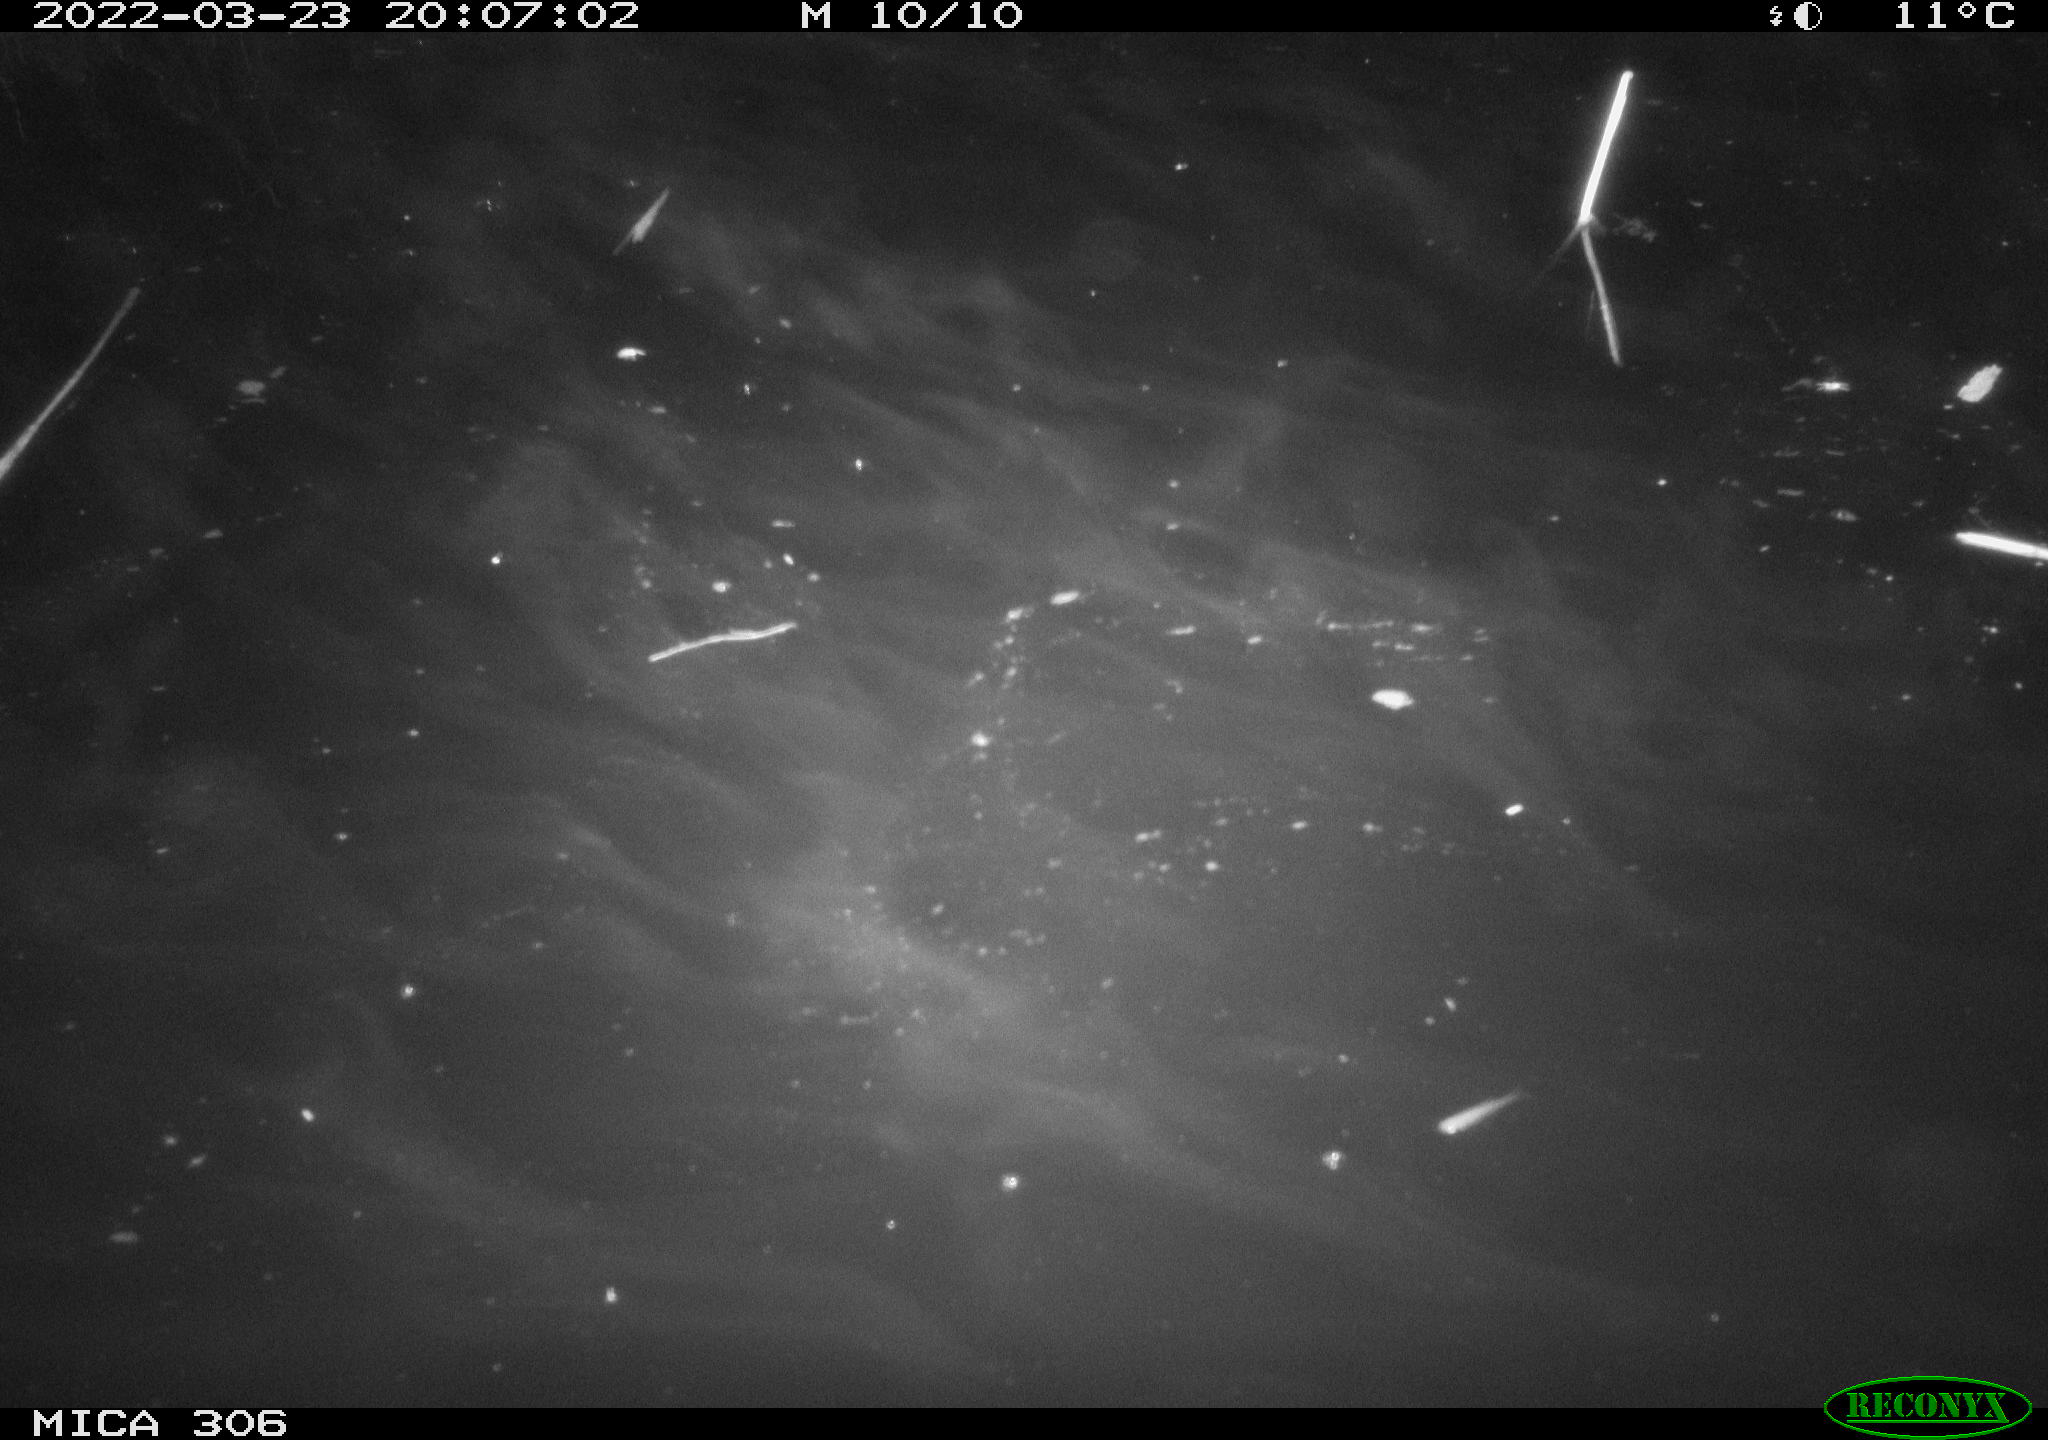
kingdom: Animalia
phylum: Chordata
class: Mammalia
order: Rodentia
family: Cricetidae
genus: Ondatra
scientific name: Ondatra zibethicus
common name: Muskrat
